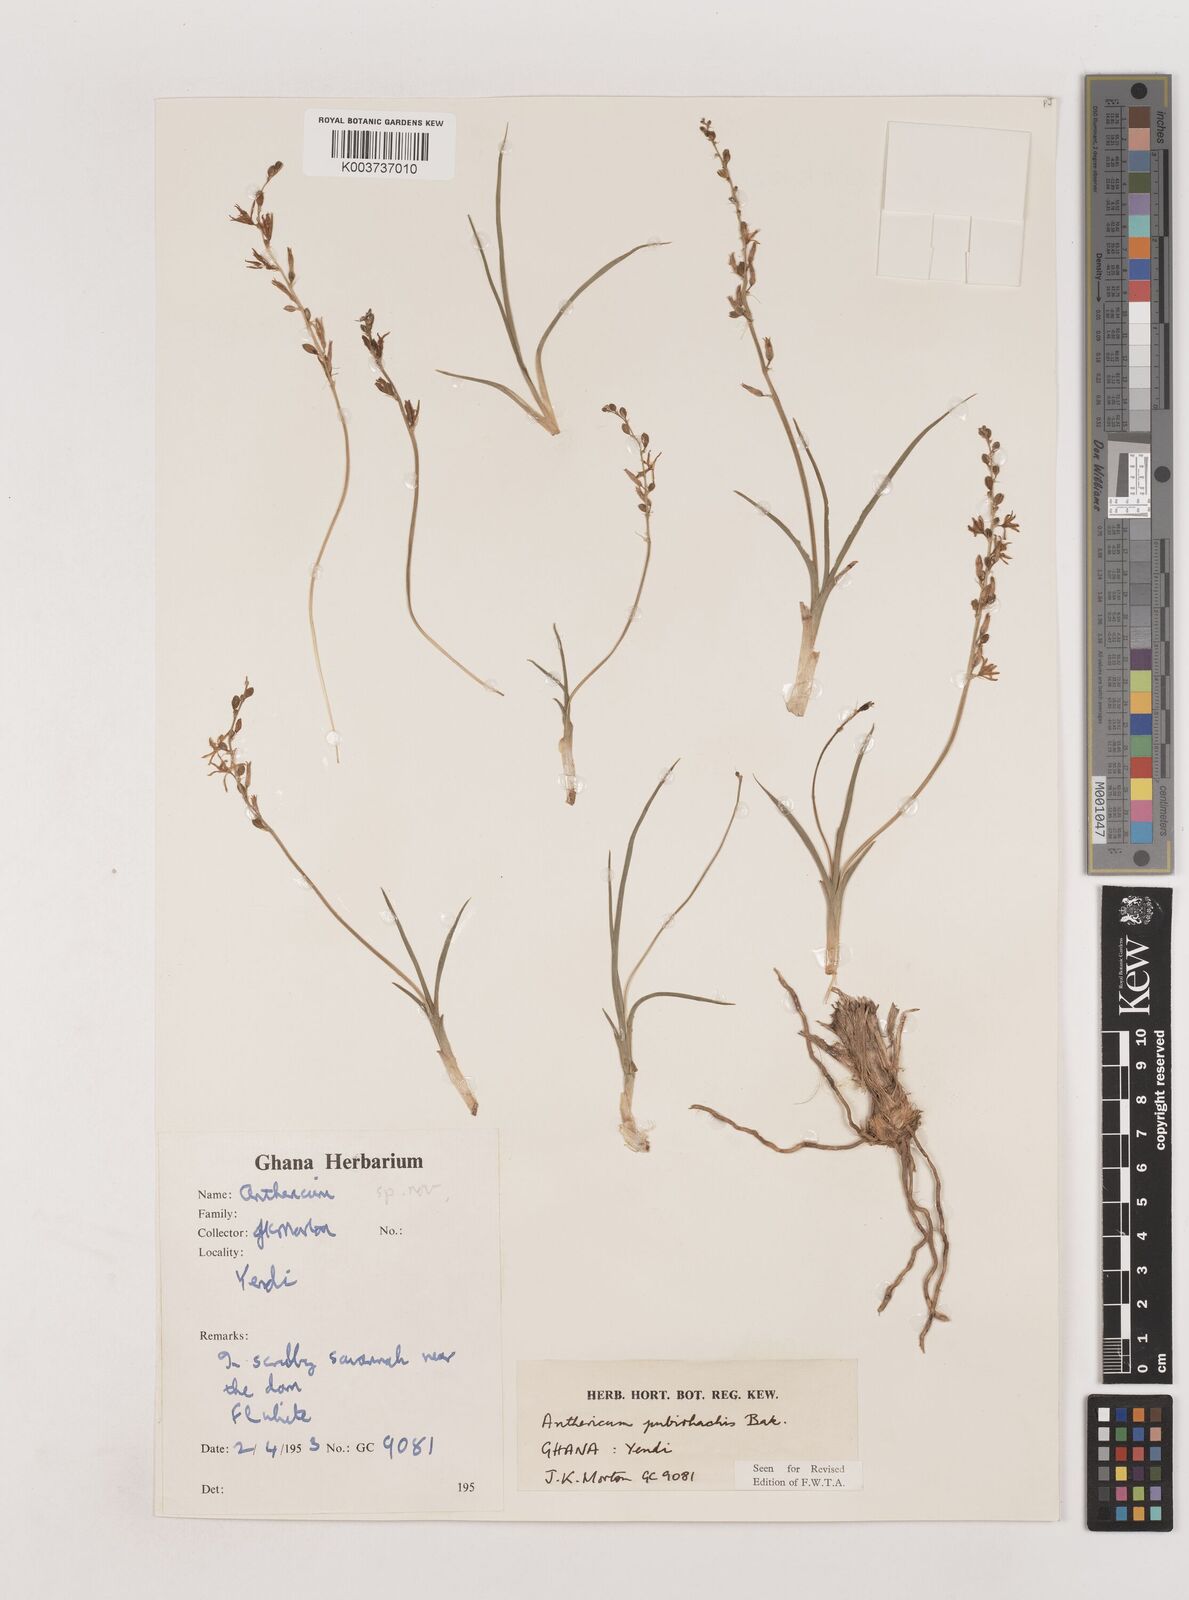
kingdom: Plantae
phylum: Tracheophyta
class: Liliopsida
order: Asparagales
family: Asparagaceae
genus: Chlorophytum
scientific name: Chlorophytum affine
